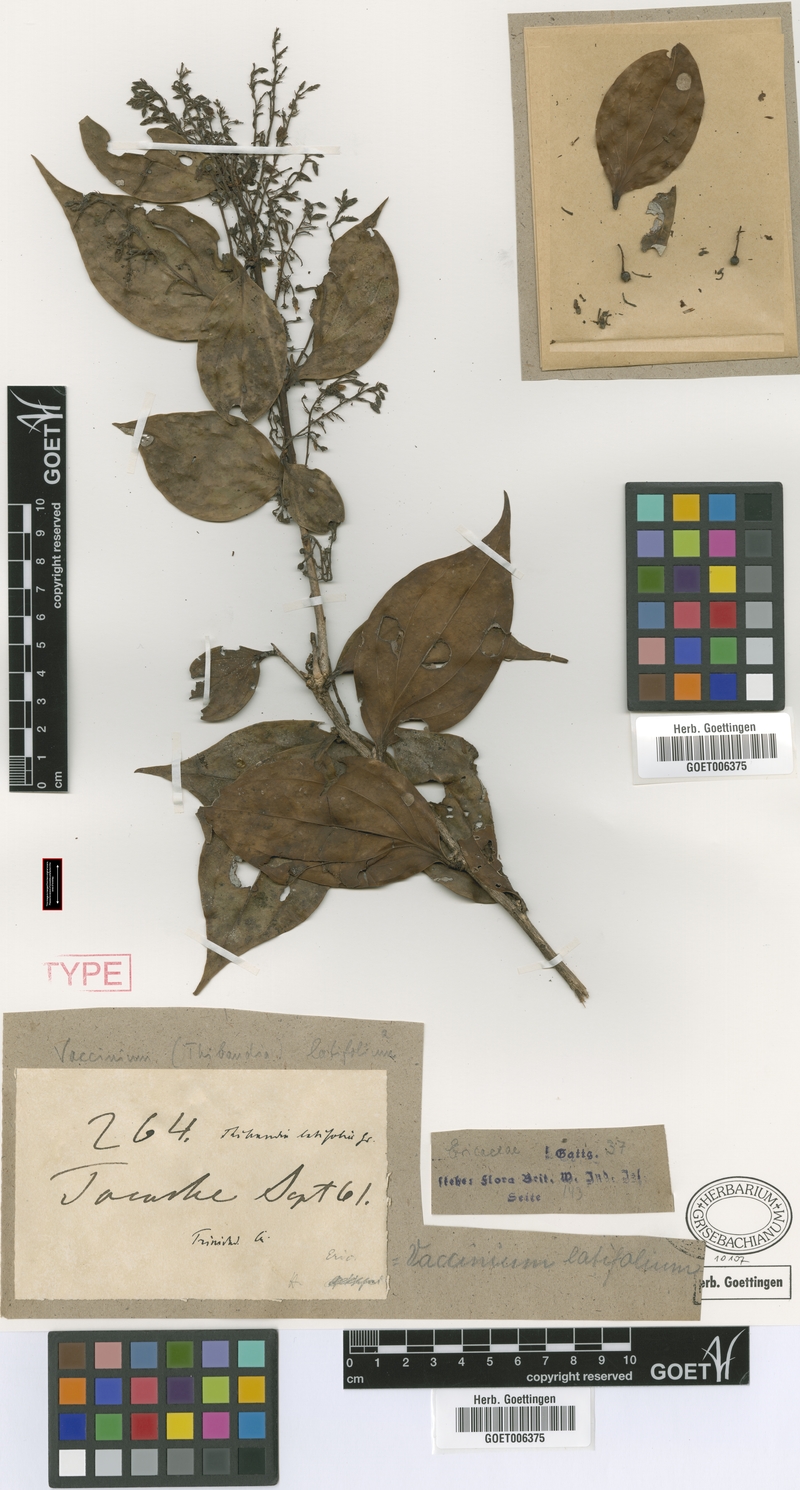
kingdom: Plantae
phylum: Tracheophyta
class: Magnoliopsida
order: Ericales
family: Ericaceae
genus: Vaccinium
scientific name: Vaccinium latifolium
